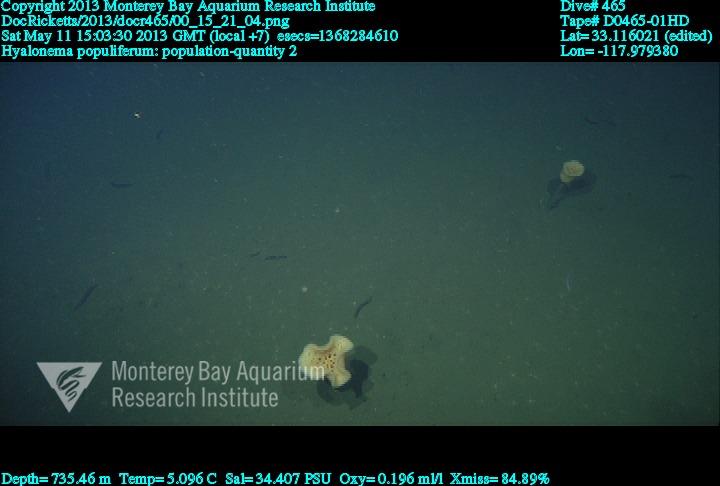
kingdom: Animalia
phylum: Porifera
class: Hexactinellida
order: Amphidiscosida
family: Hyalonematidae
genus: Hyalonema
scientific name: Hyalonema populiferum
